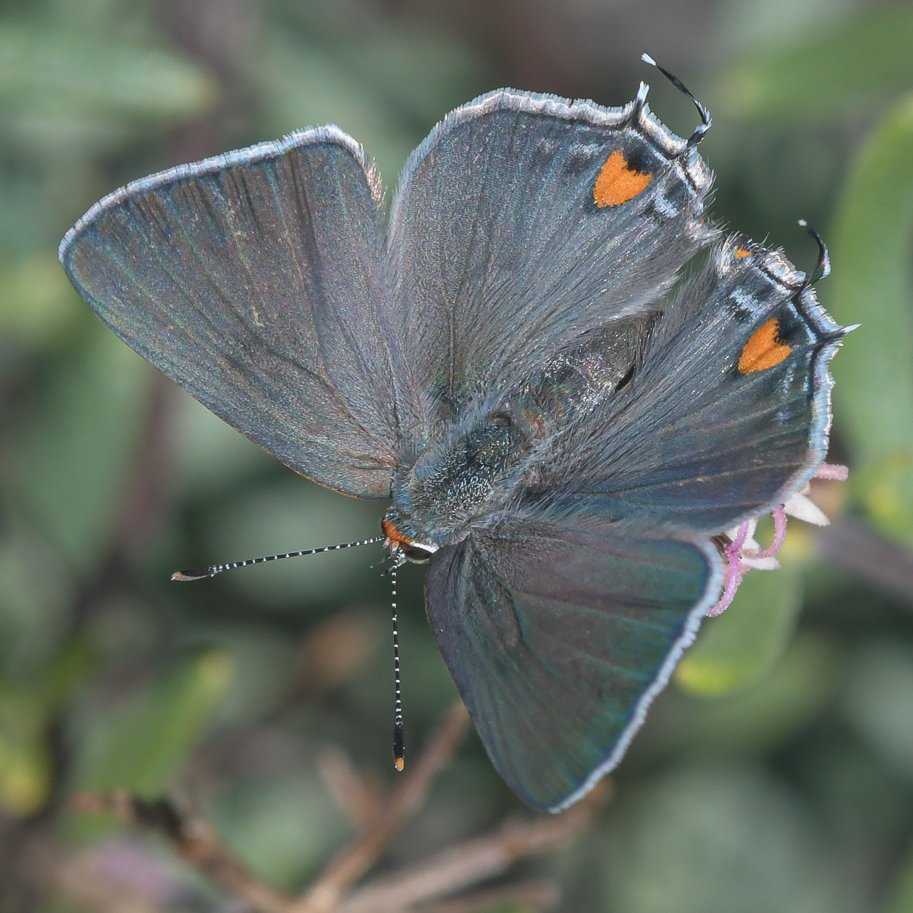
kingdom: Animalia
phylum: Arthropoda
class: Insecta
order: Lepidoptera
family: Lycaenidae
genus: Strymon
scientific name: Strymon melinus
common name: Gray Hairstreak
